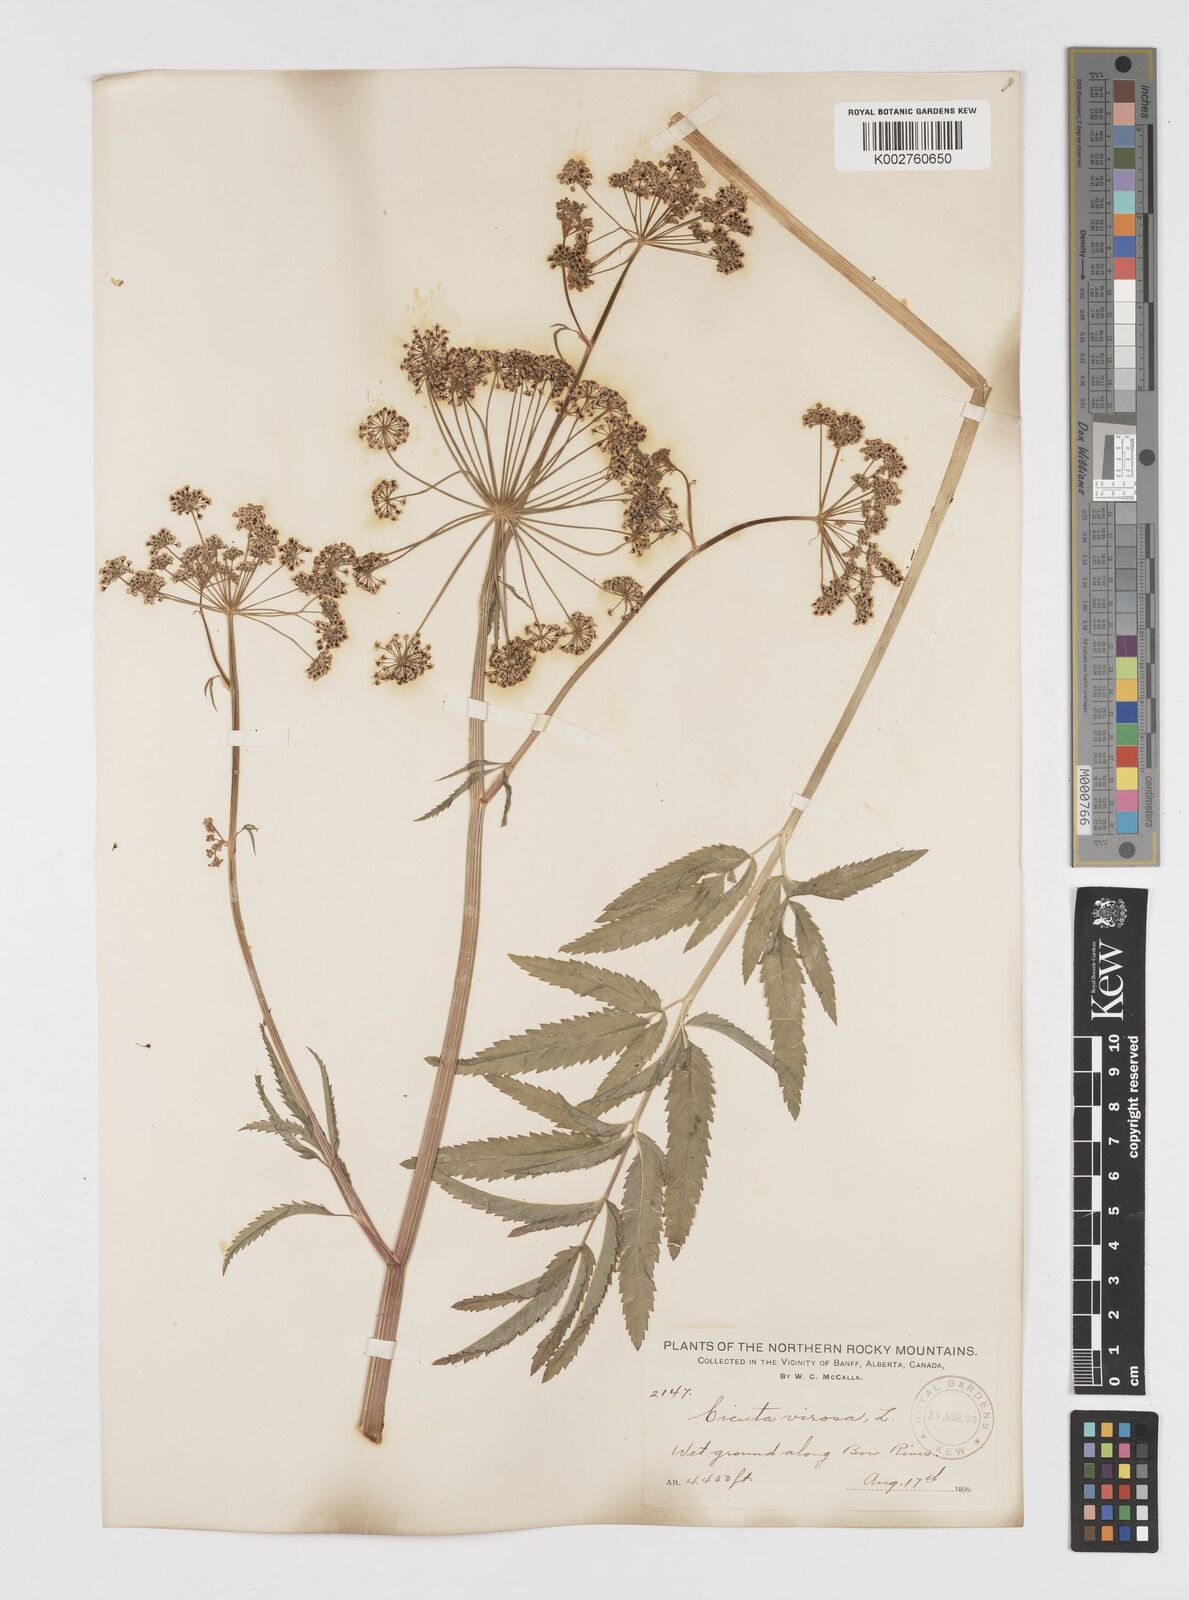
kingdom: Plantae
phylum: Tracheophyta
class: Magnoliopsida
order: Apiales
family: Apiaceae
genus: Cicuta
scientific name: Cicuta douglasii
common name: Western water-hemlock
